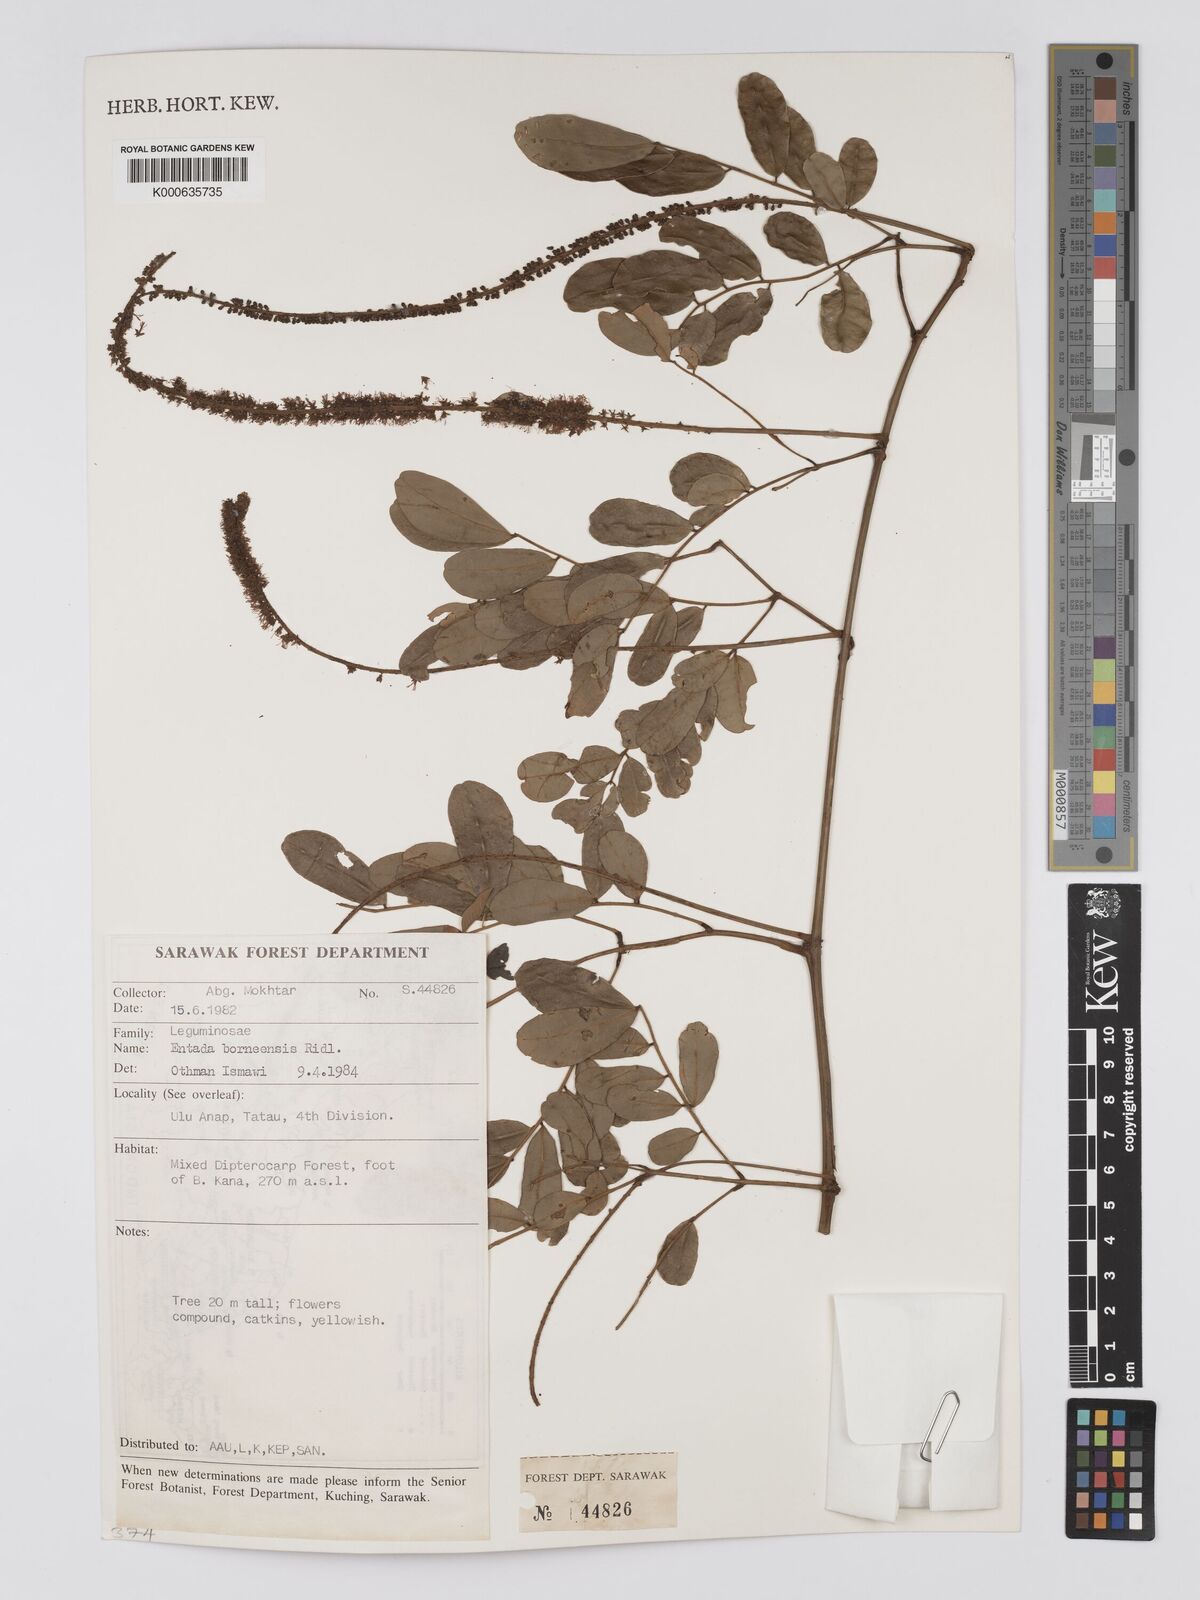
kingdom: Plantae
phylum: Tracheophyta
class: Magnoliopsida
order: Fabales
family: Fabaceae
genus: Entada
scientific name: Entada borneensis
